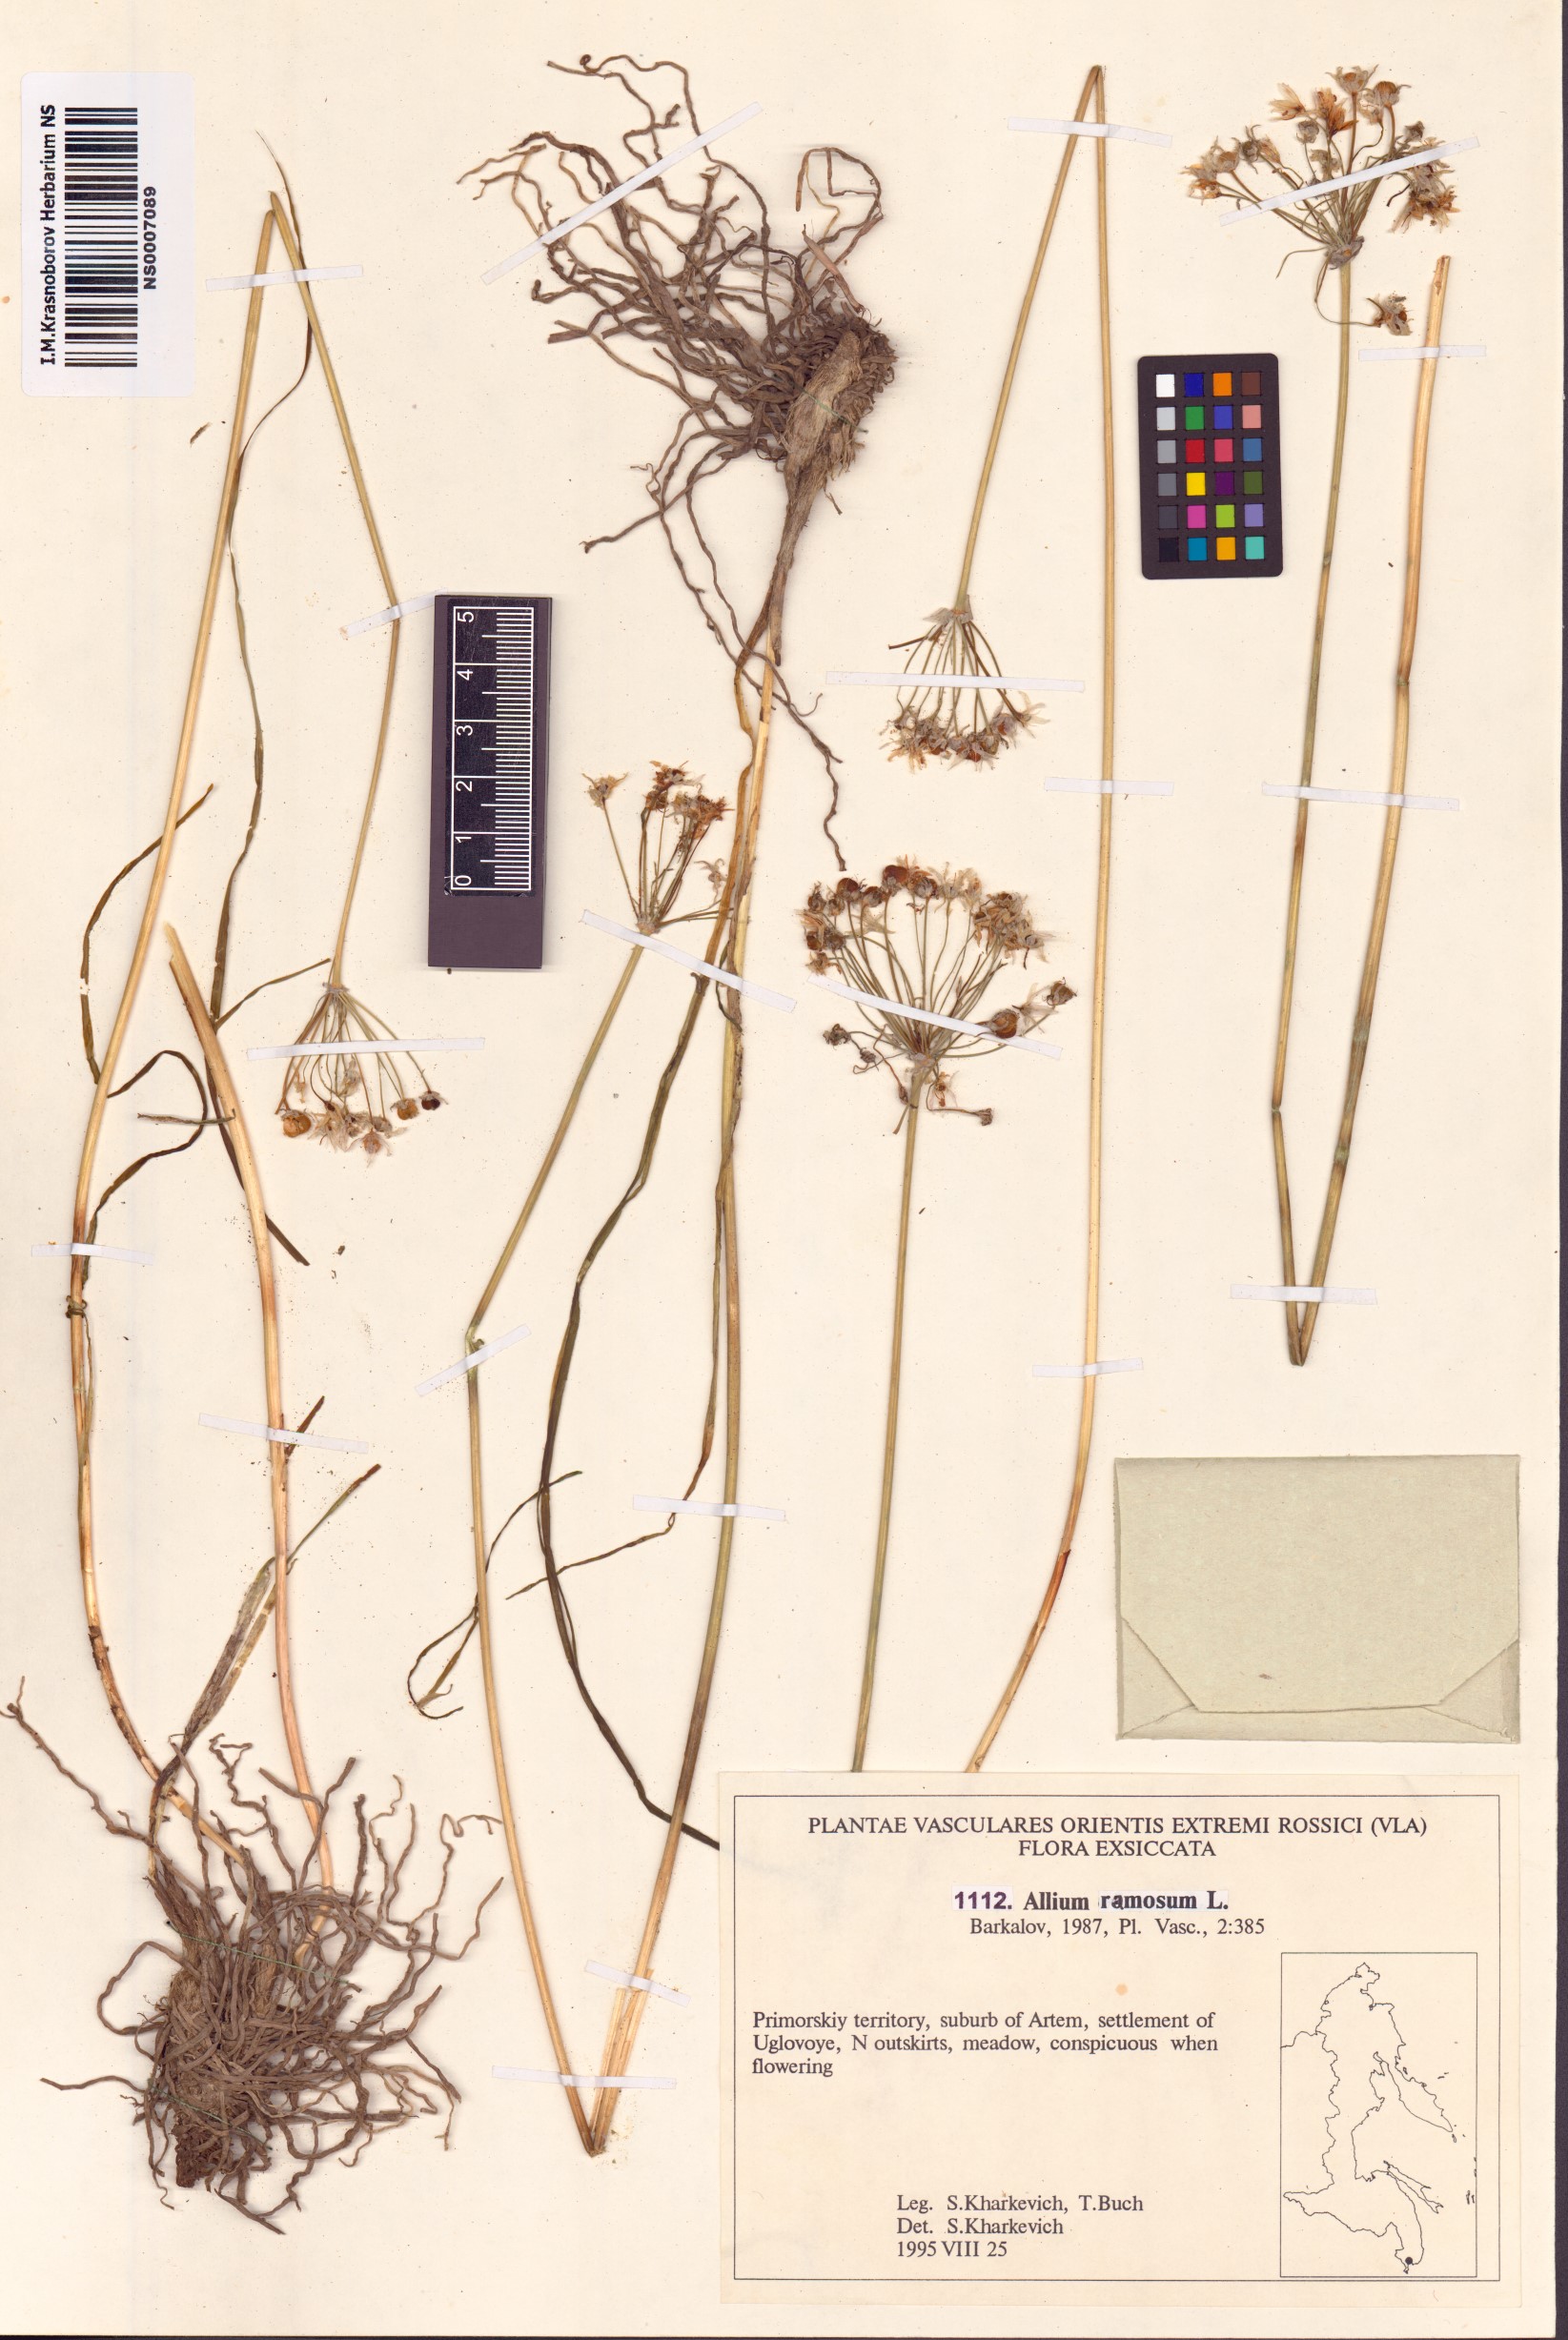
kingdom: Plantae
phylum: Tracheophyta
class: Liliopsida
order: Asparagales
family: Amaryllidaceae
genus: Allium
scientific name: Allium ramosum
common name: Fragrant garlic
